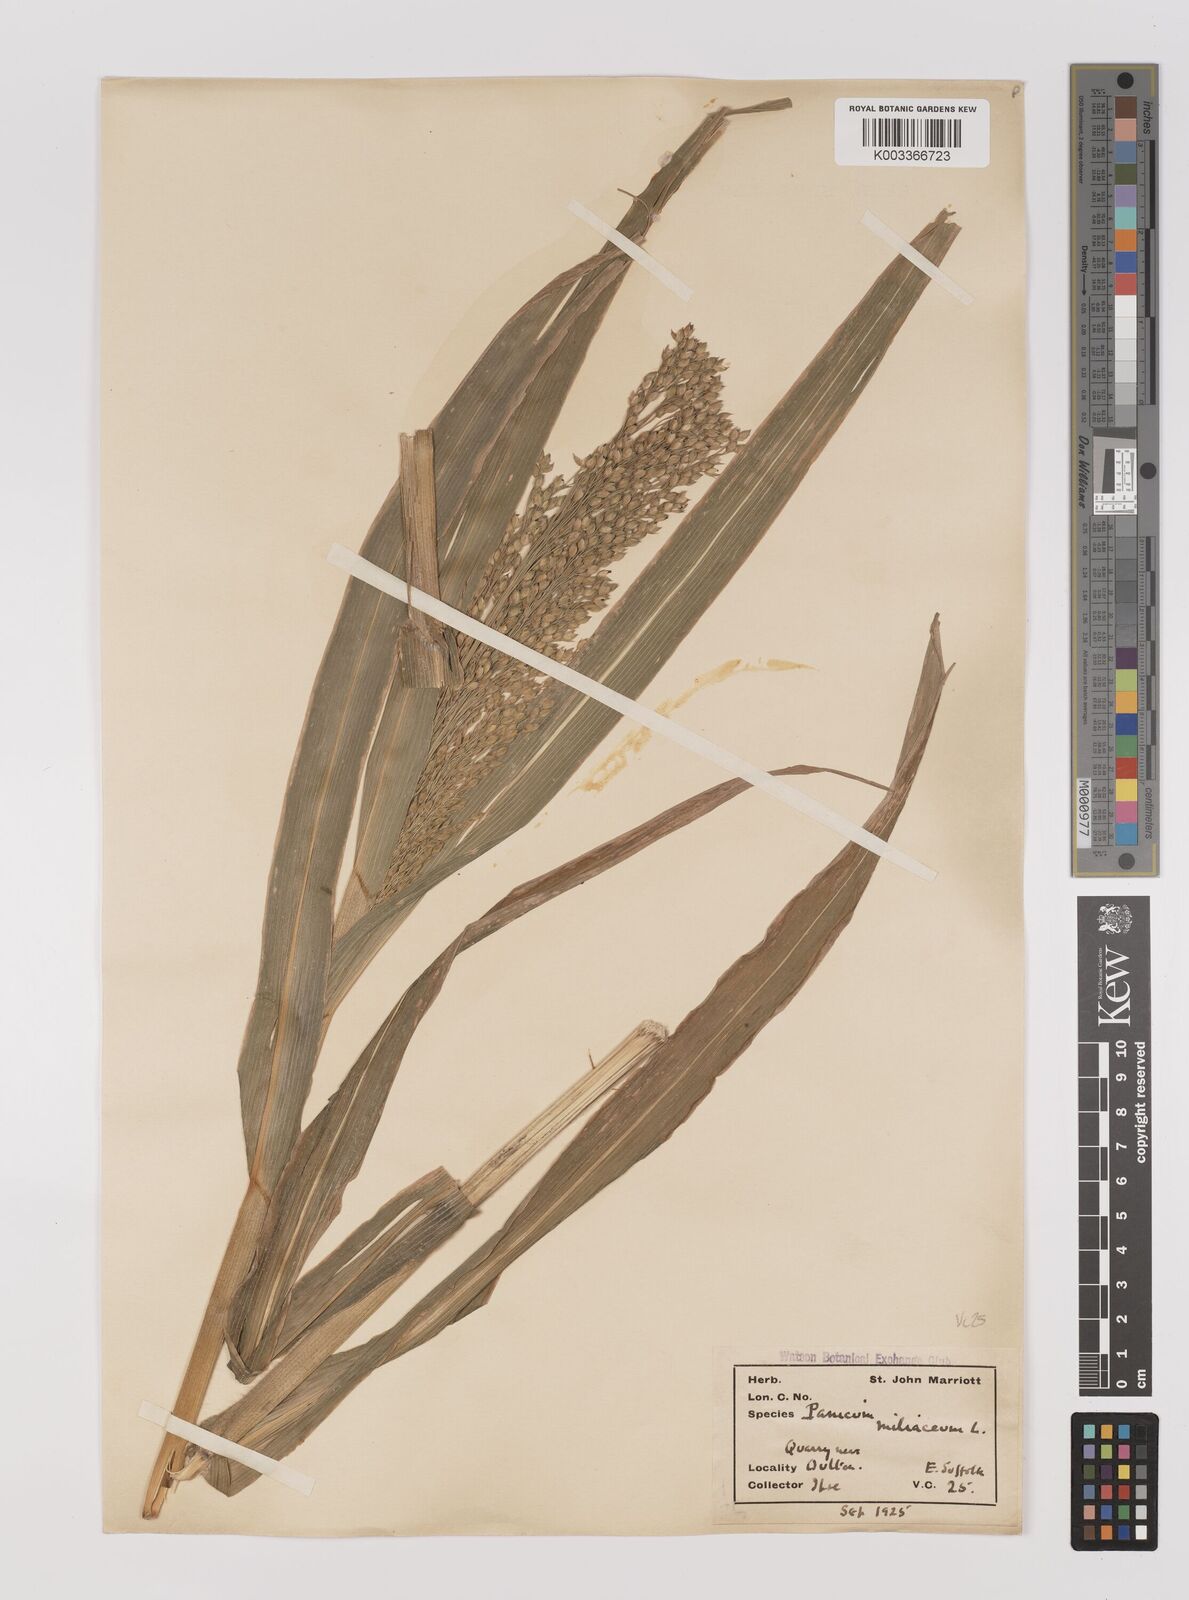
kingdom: Plantae
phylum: Tracheophyta
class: Liliopsida
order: Poales
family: Poaceae
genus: Panicum
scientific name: Panicum miliaceum
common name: Common millet
